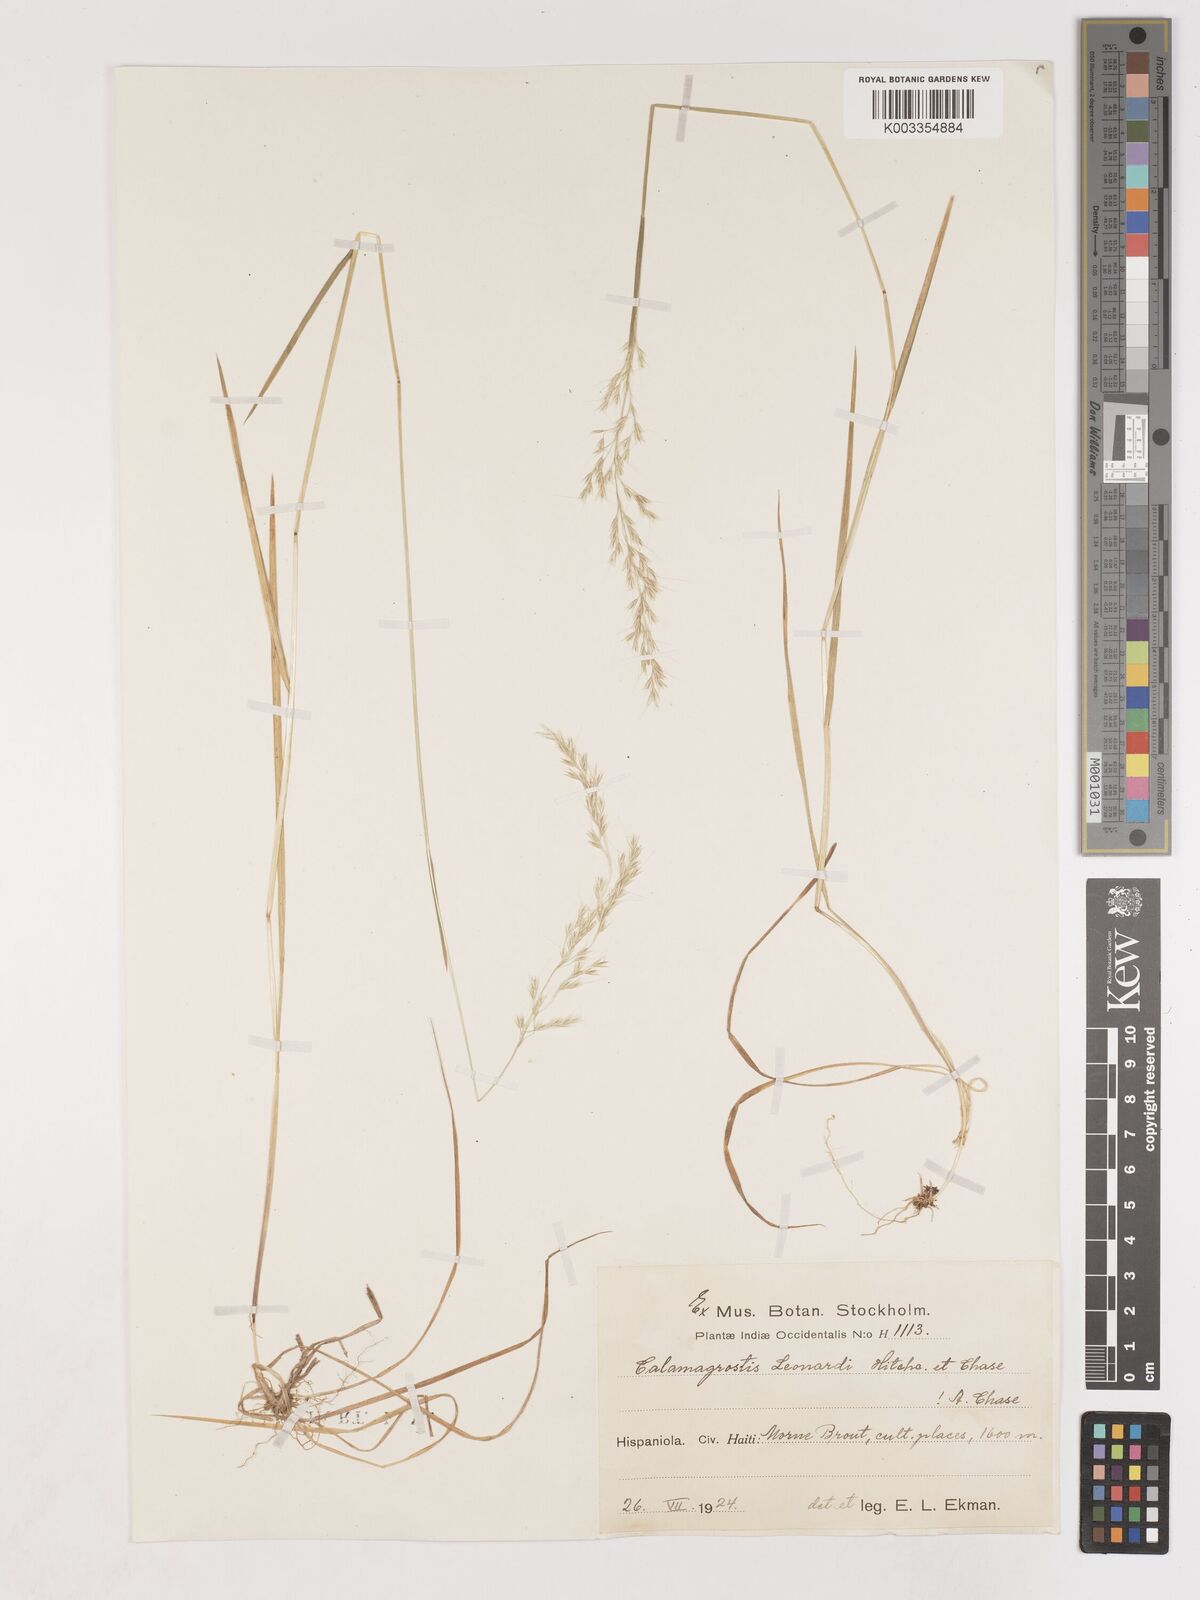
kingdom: Plantae
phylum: Tracheophyta
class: Liliopsida
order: Poales
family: Poaceae
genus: Calamagrostis
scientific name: Calamagrostis
